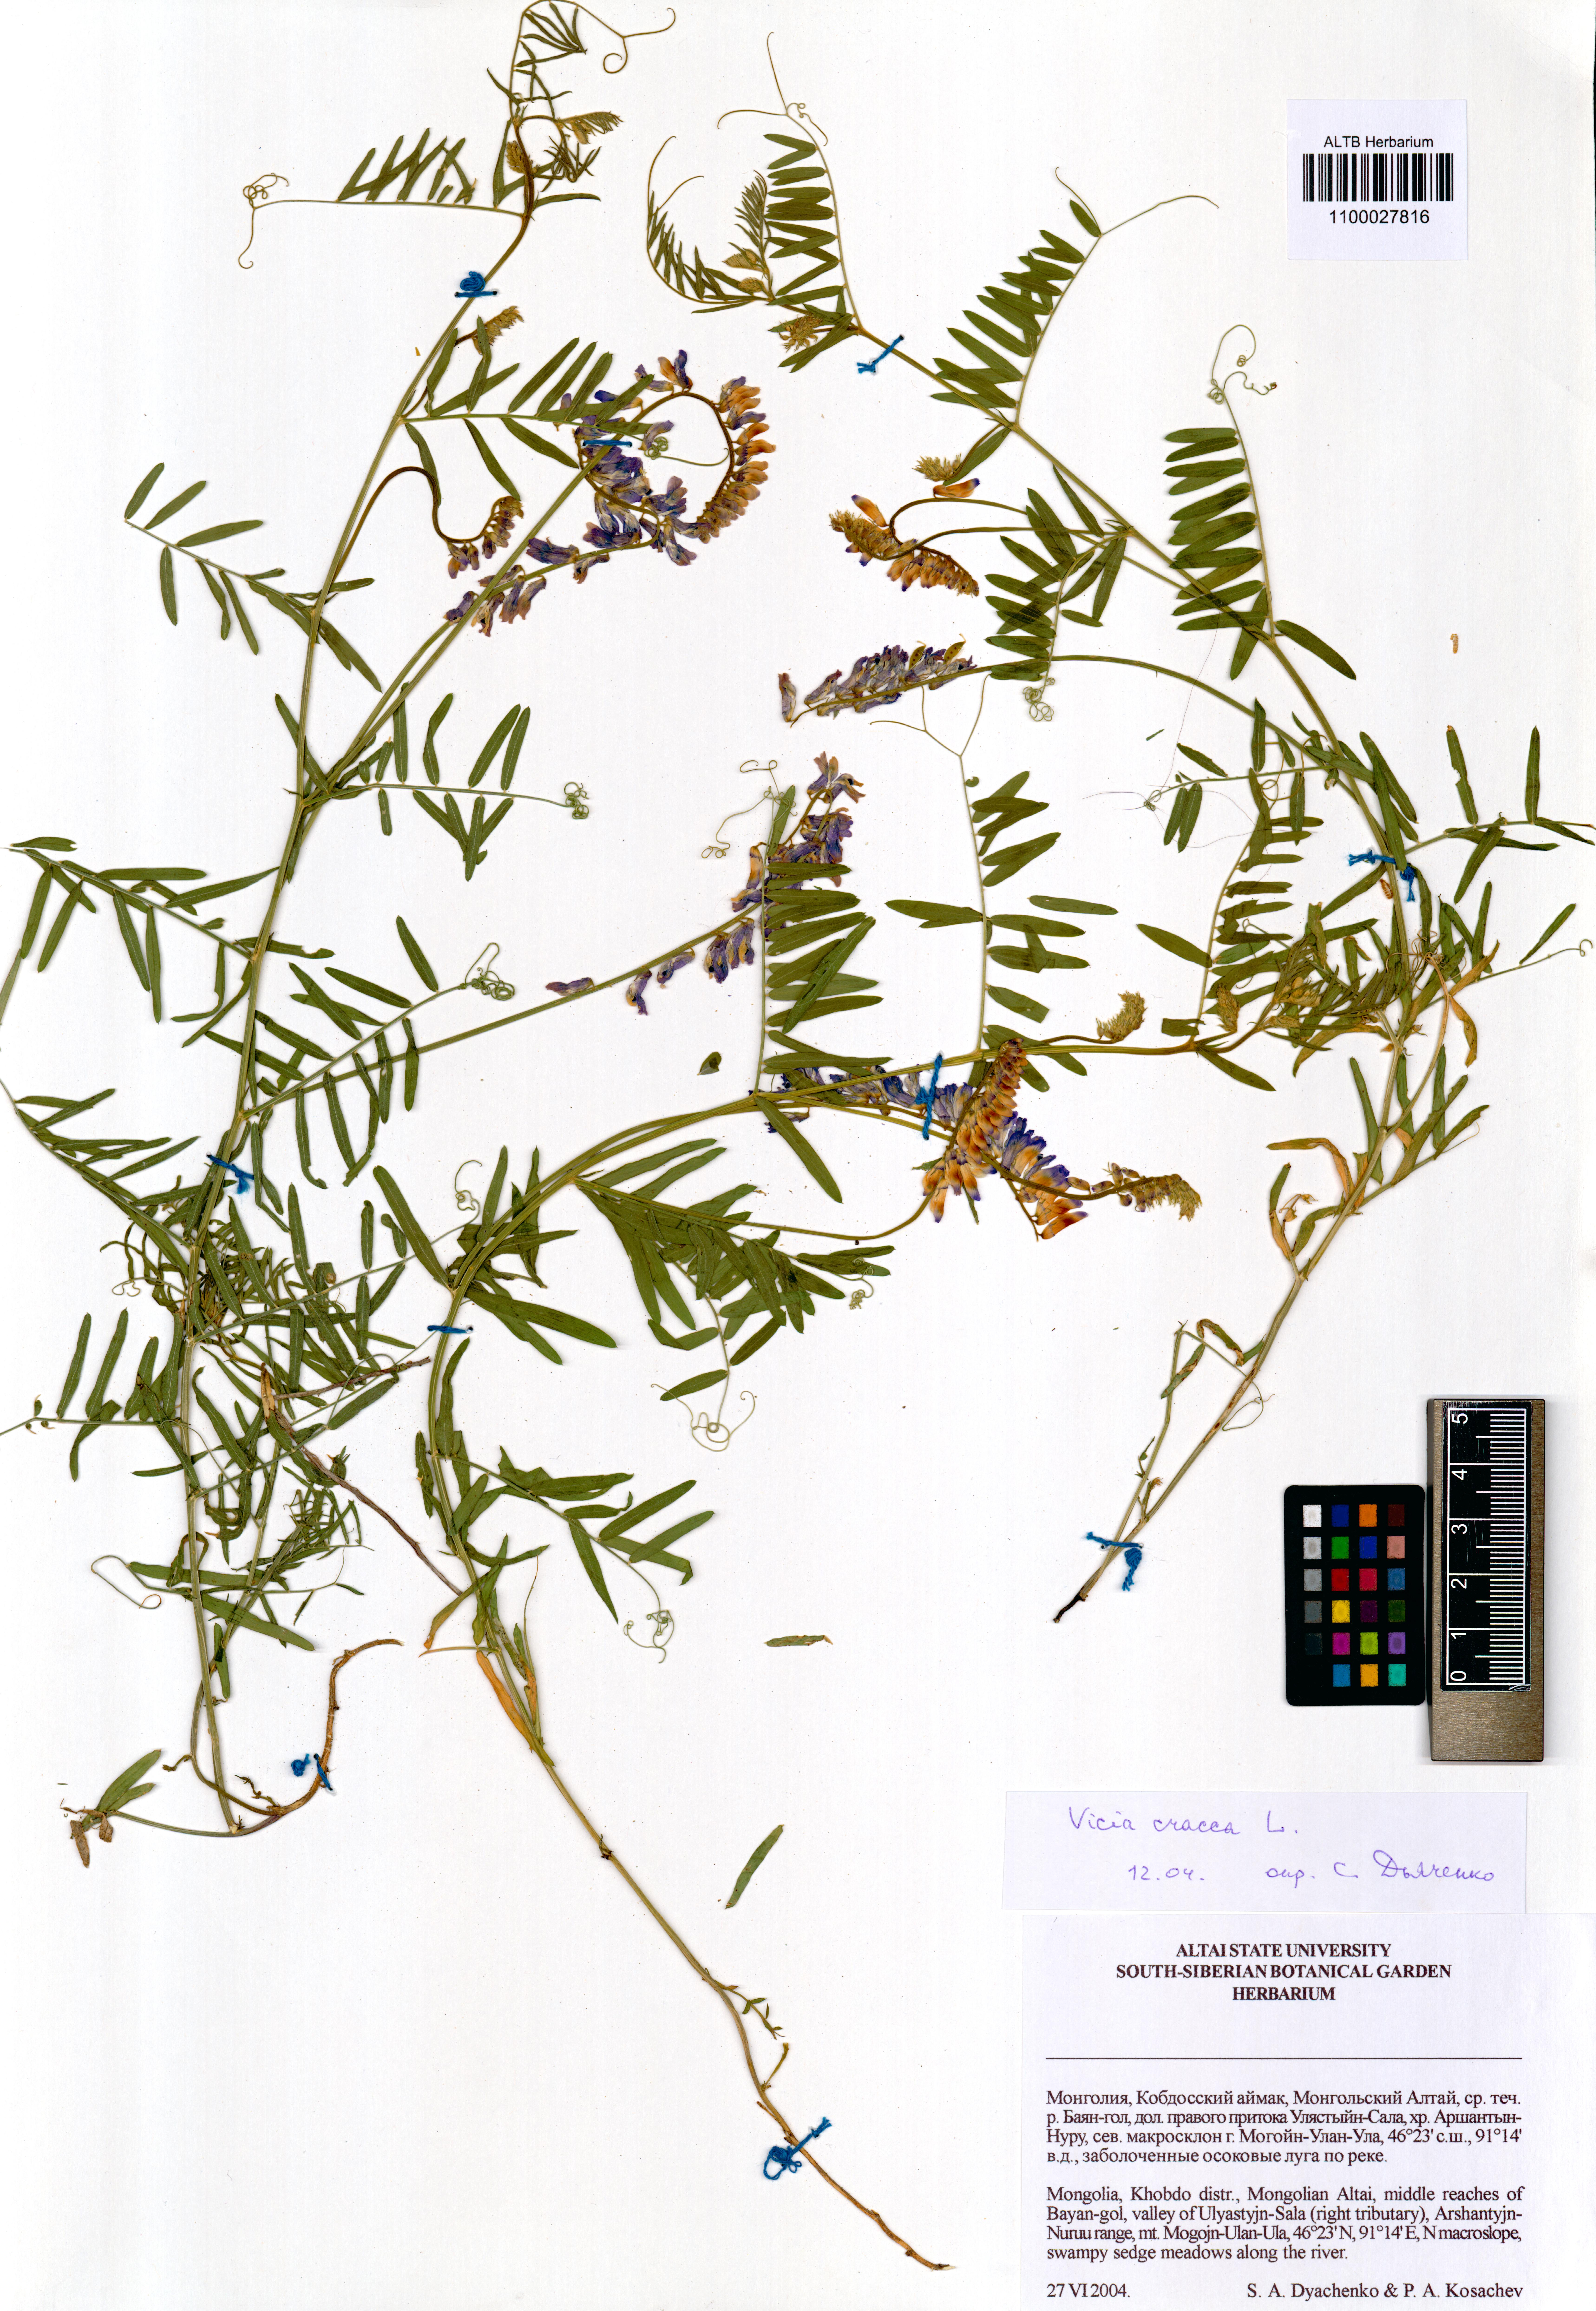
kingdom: Plantae
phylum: Tracheophyta
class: Magnoliopsida
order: Fabales
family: Fabaceae
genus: Vicia
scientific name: Vicia cracca
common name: Bird vetch
